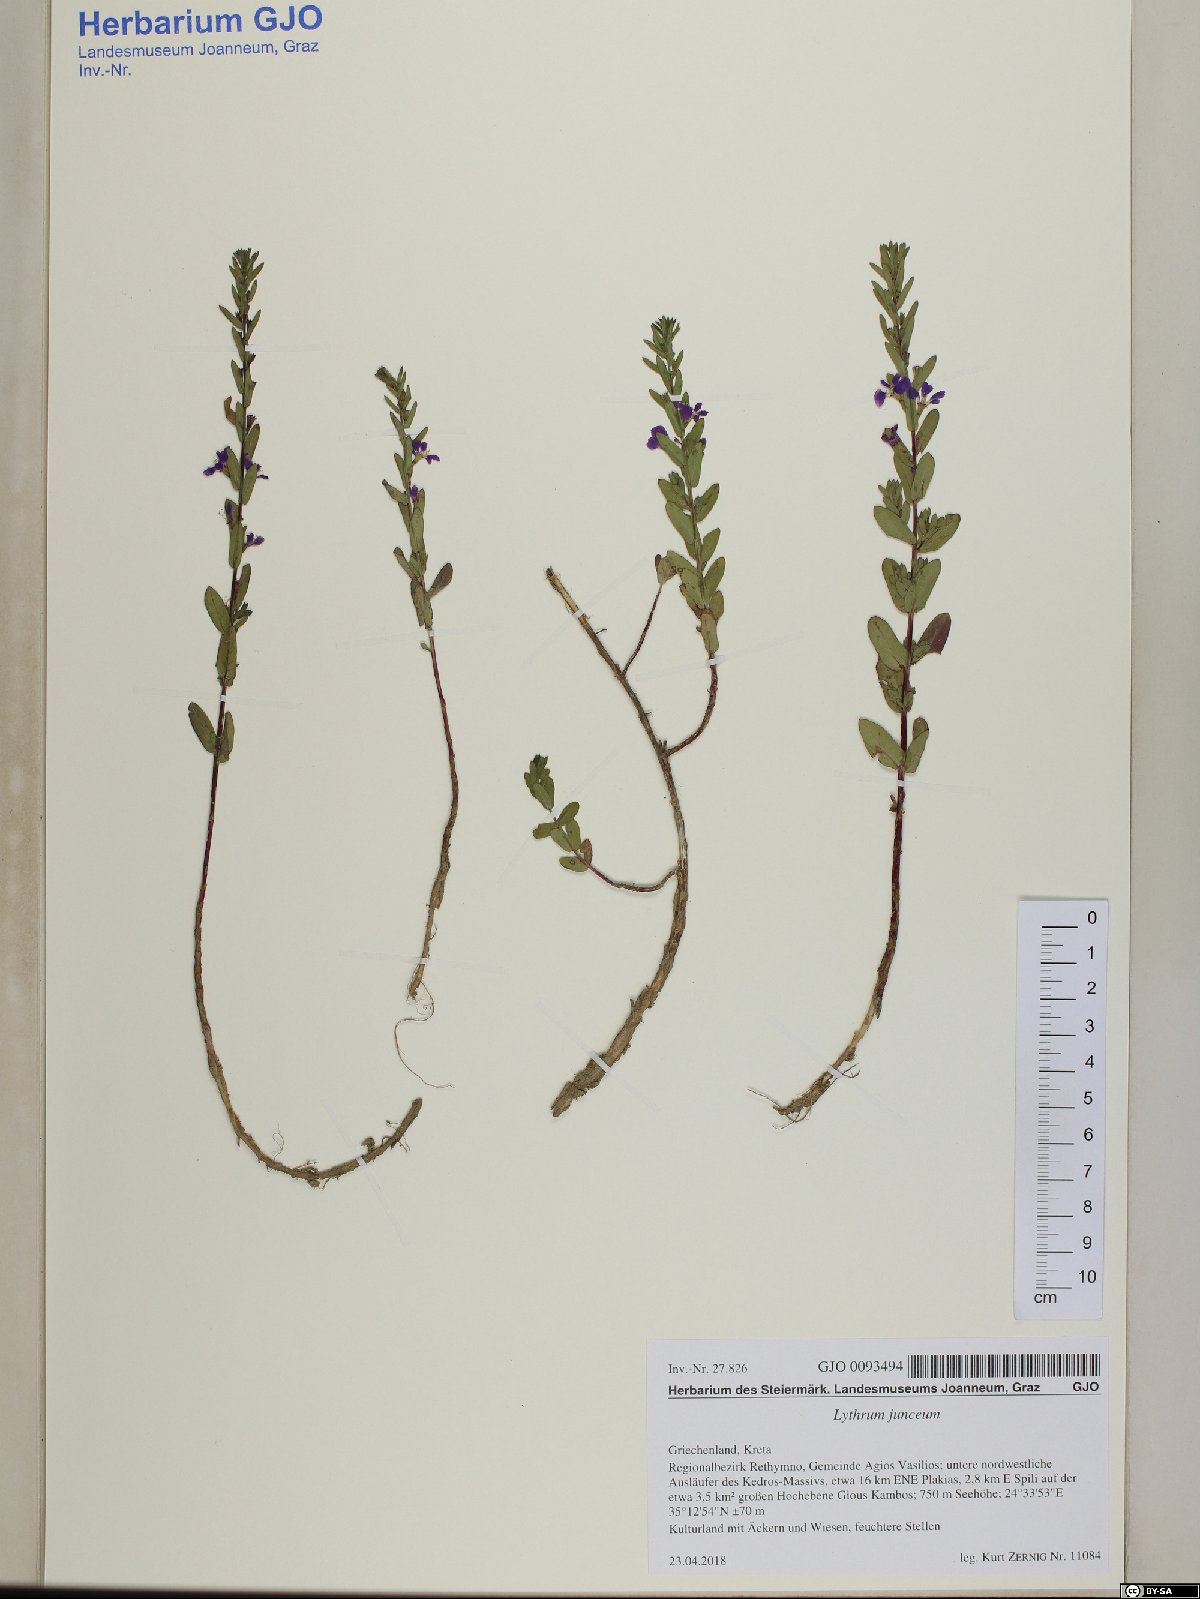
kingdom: Plantae
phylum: Tracheophyta
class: Magnoliopsida
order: Myrtales
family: Lythraceae
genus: Lythrum
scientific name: Lythrum junceum
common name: False grass-poly
